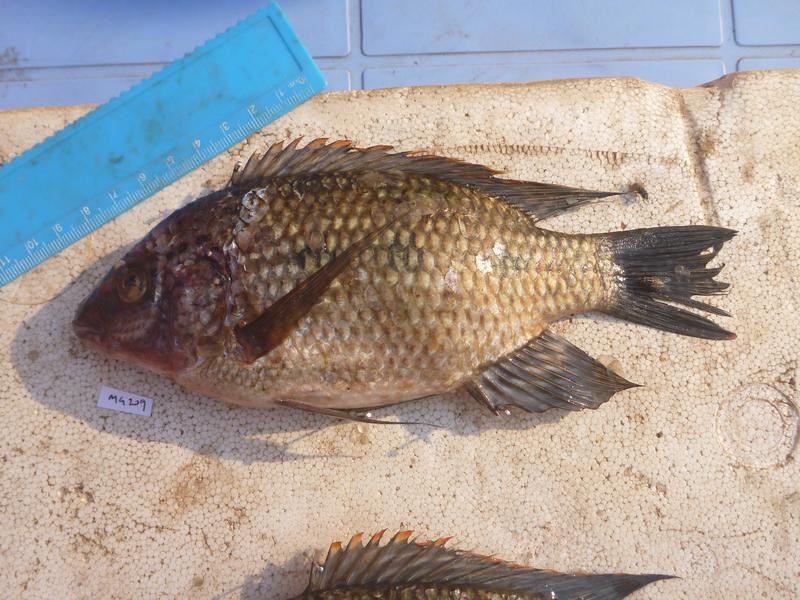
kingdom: Animalia
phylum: Chordata
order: Perciformes
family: Cichlidae
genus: Oreochromis
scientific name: Oreochromis karomo
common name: Karomo
